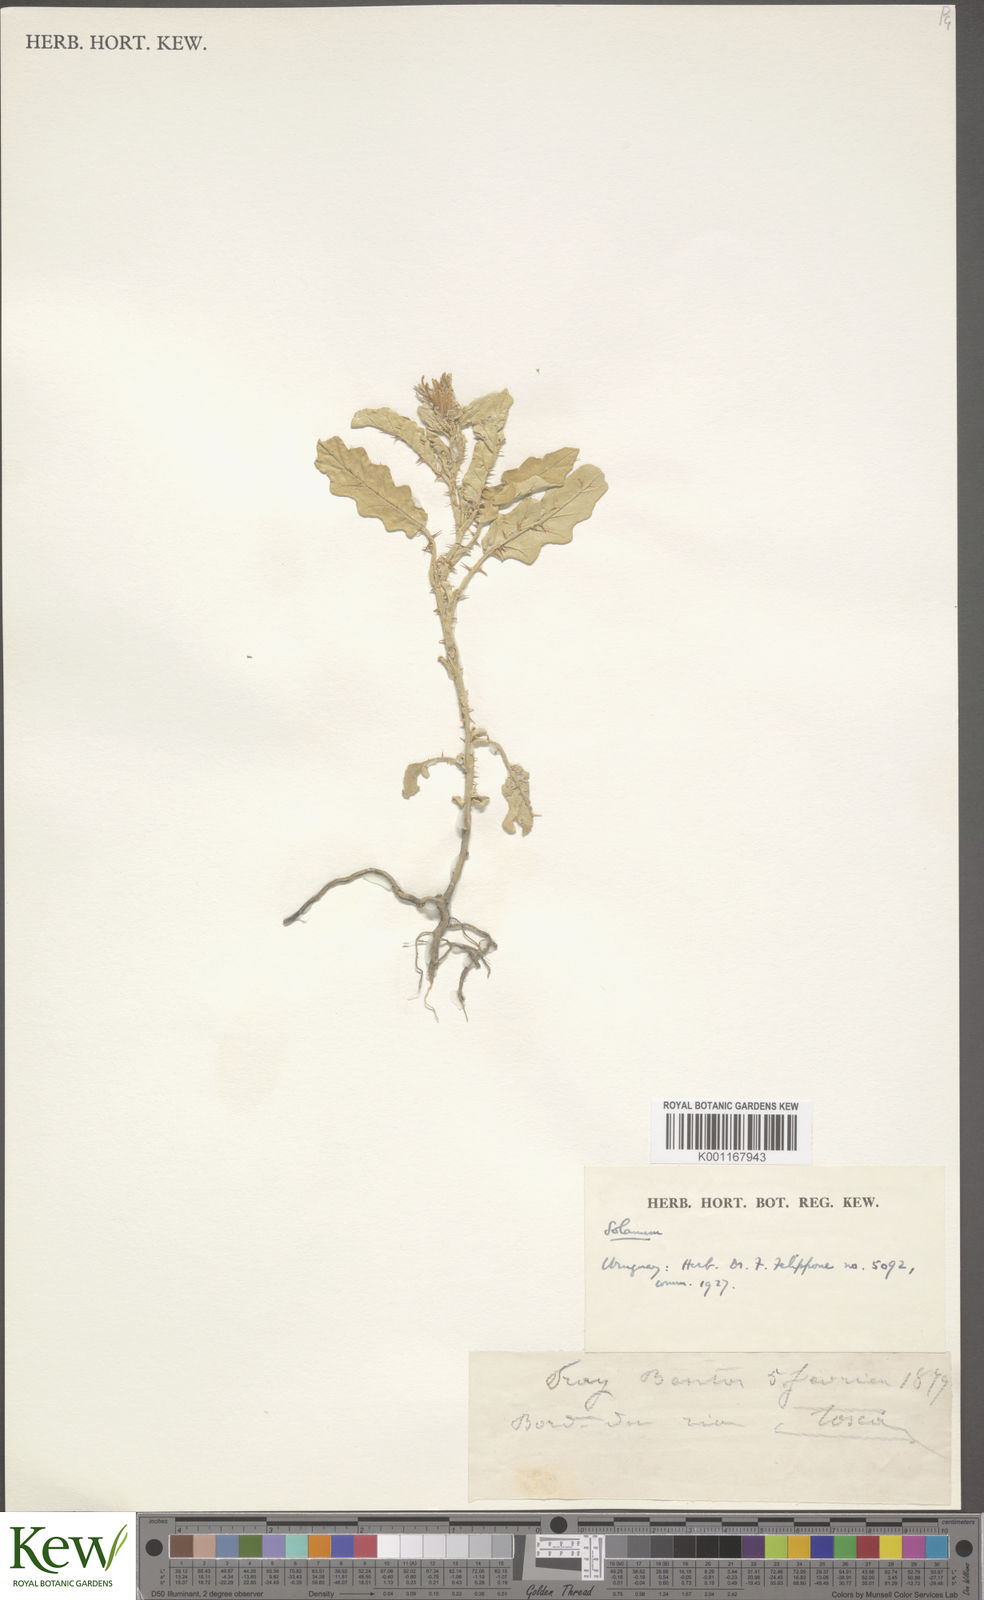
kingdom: Plantae
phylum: Tracheophyta
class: Magnoliopsida
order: Solanales
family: Solanaceae
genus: Solanum
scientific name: Solanum
